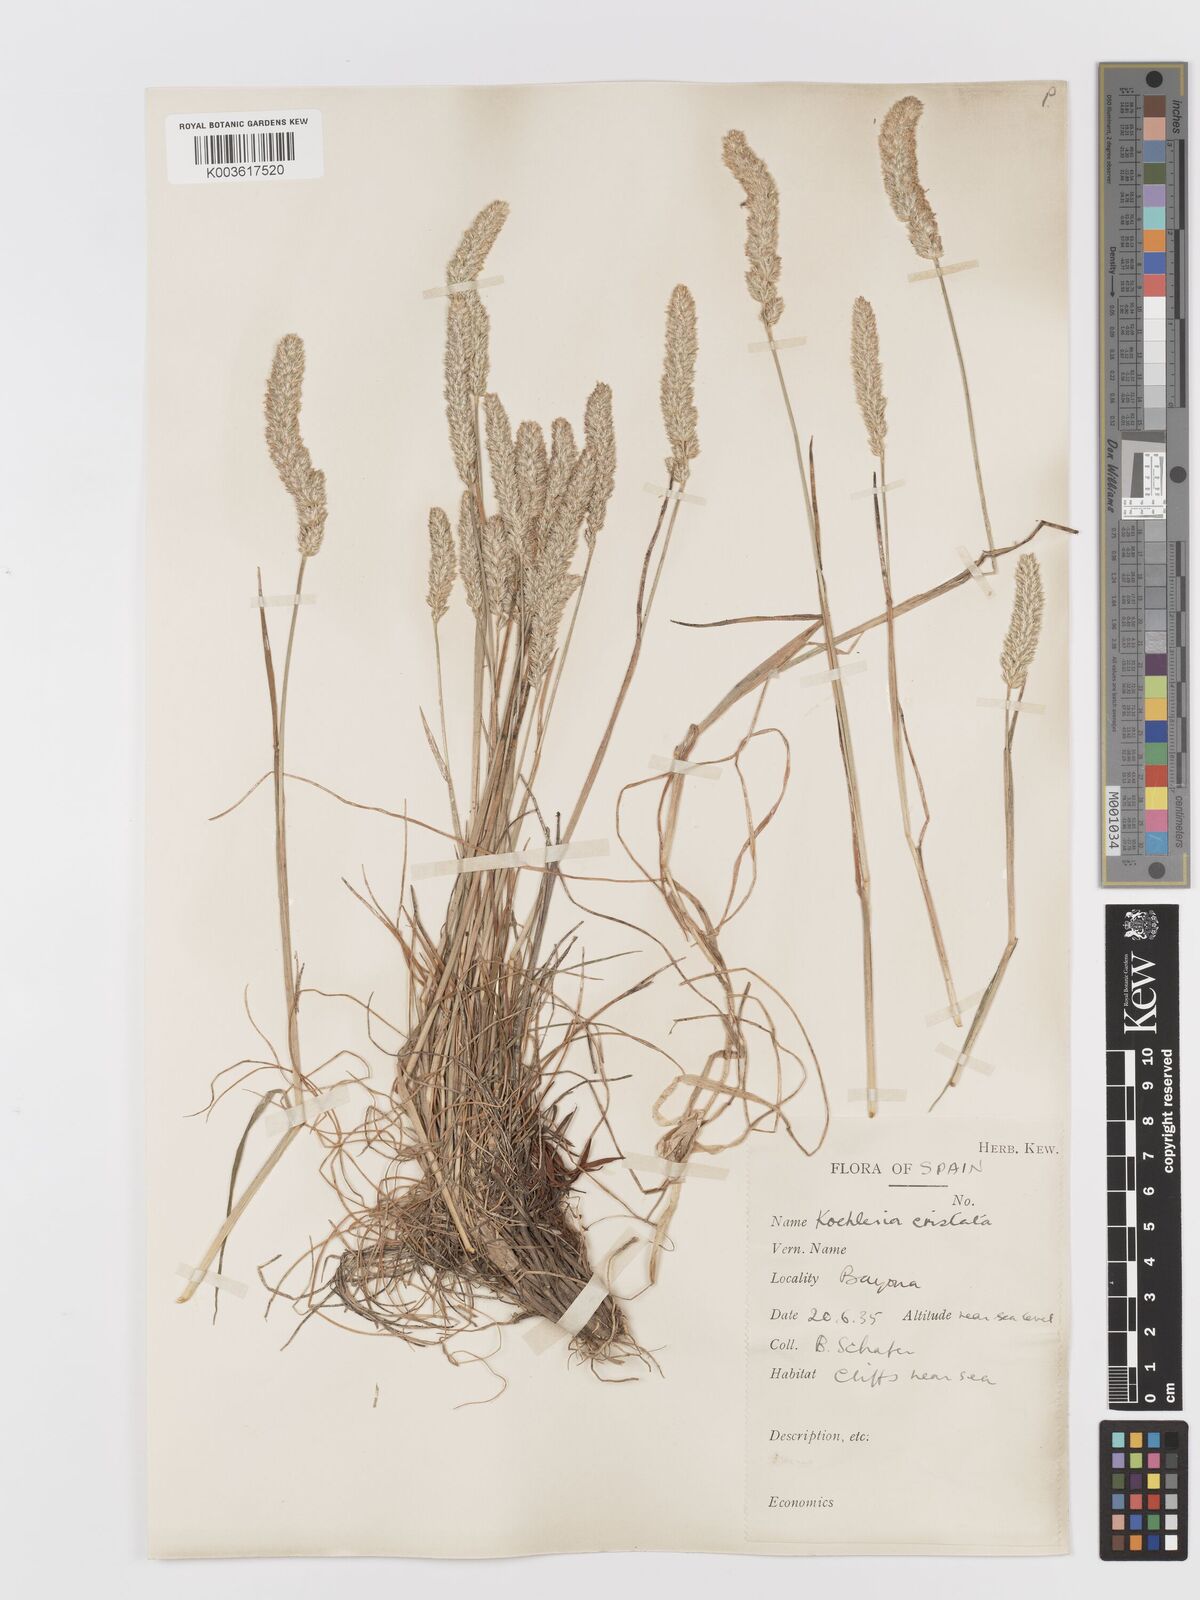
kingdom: Plantae
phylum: Tracheophyta
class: Liliopsida
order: Poales
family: Poaceae
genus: Koeleria
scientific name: Koeleria
